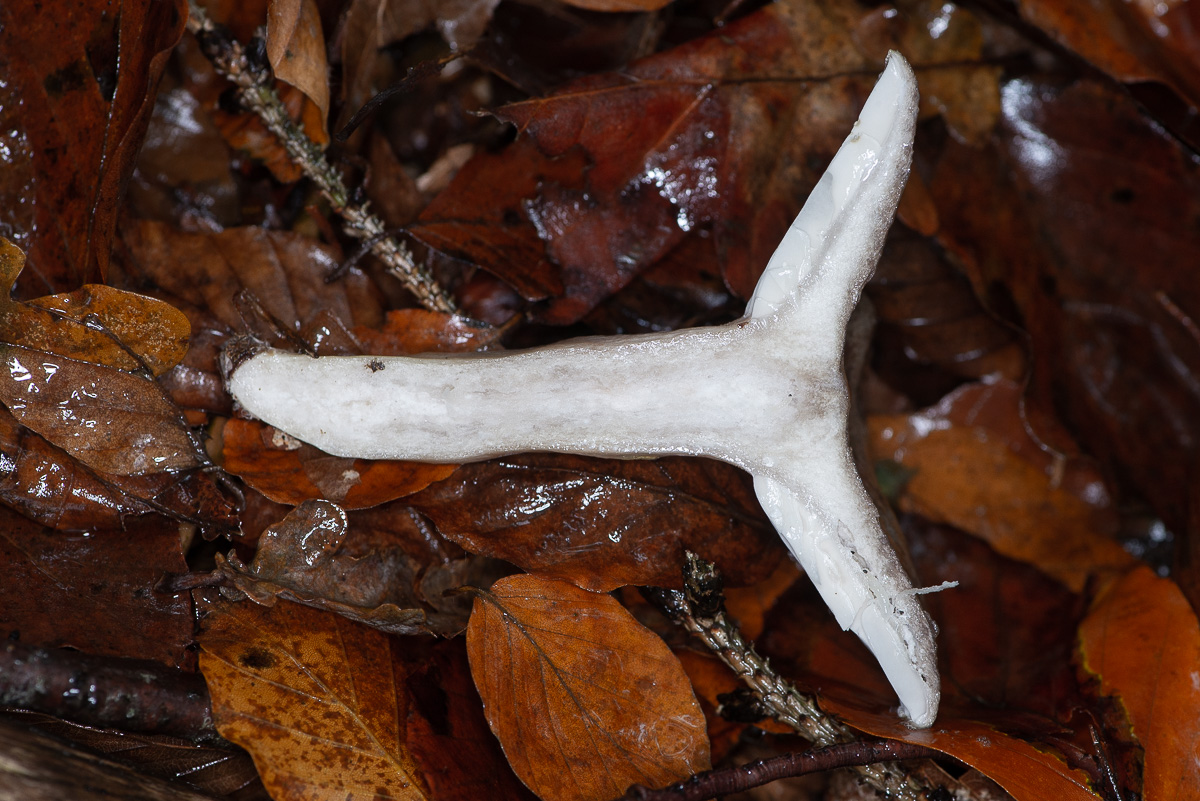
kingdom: Fungi
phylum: Basidiomycota
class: Agaricomycetes
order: Russulales
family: Russulaceae
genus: Lactarius
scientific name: Lactarius blennius
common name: dråbeplettet mælkehat
